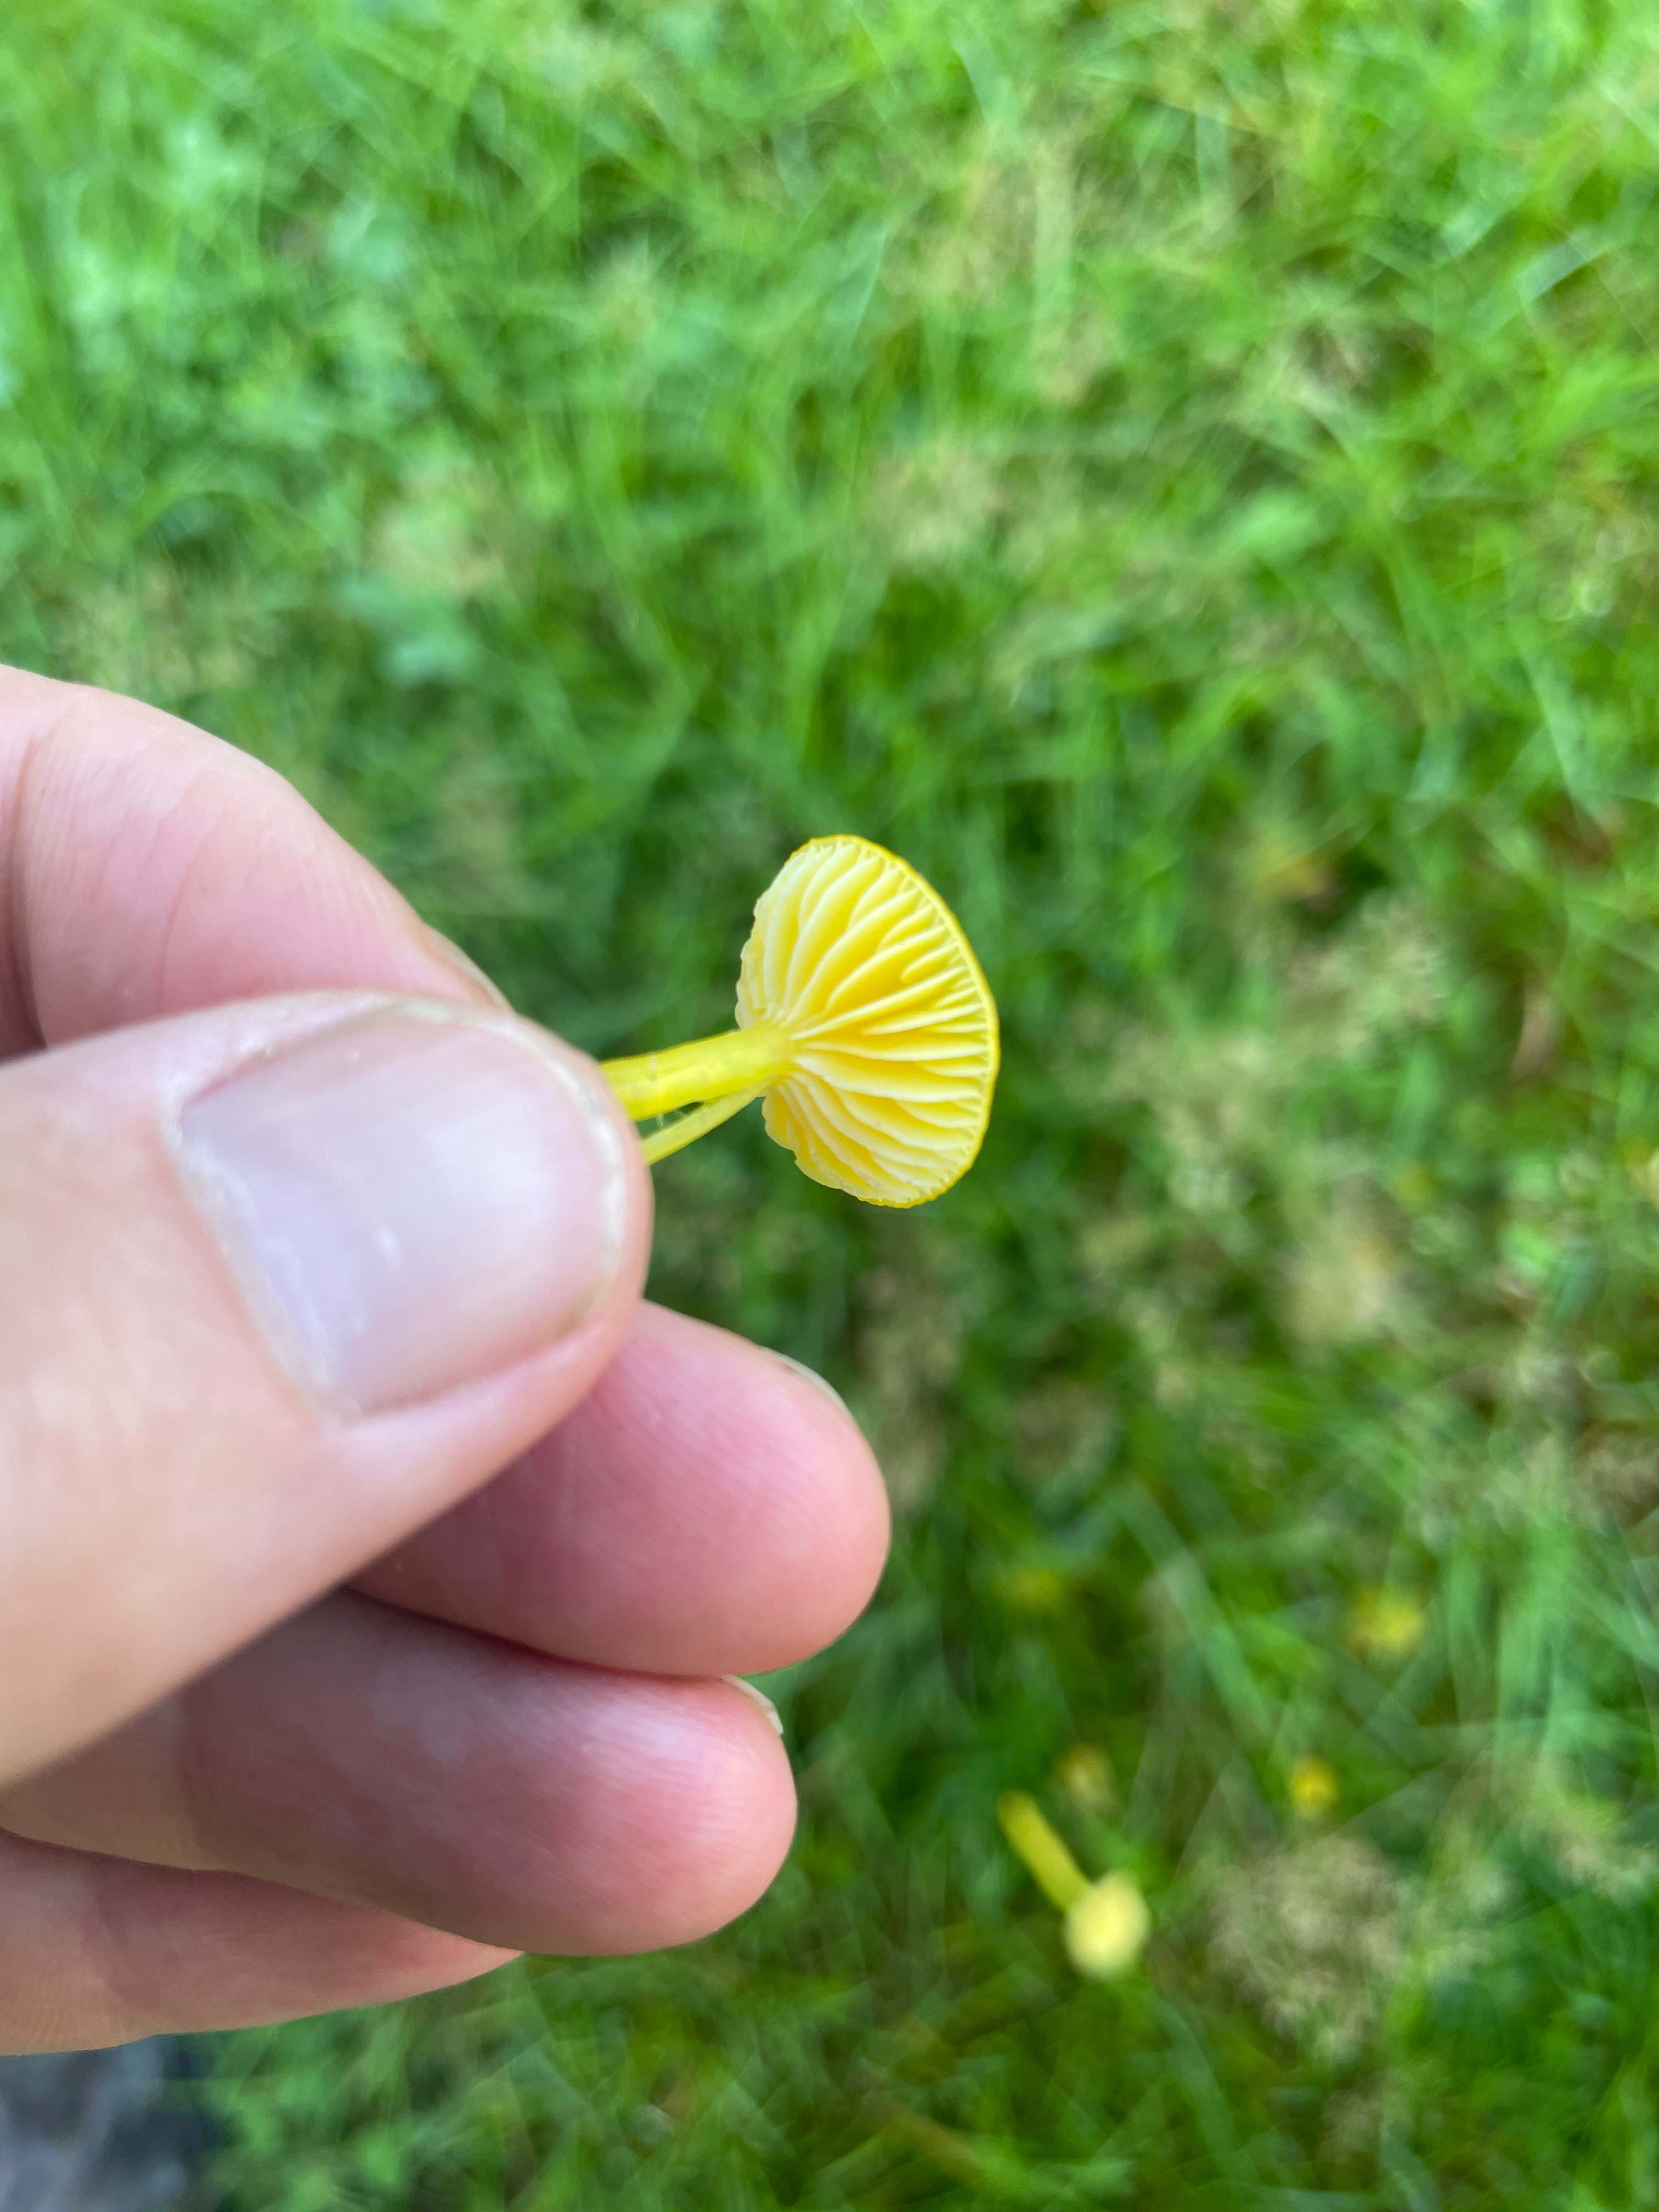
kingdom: Fungi
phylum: Basidiomycota
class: Agaricomycetes
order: Agaricales
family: Hygrophoraceae
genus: Hygrocybe
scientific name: Hygrocybe ceracea
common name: voksgul vokshat
